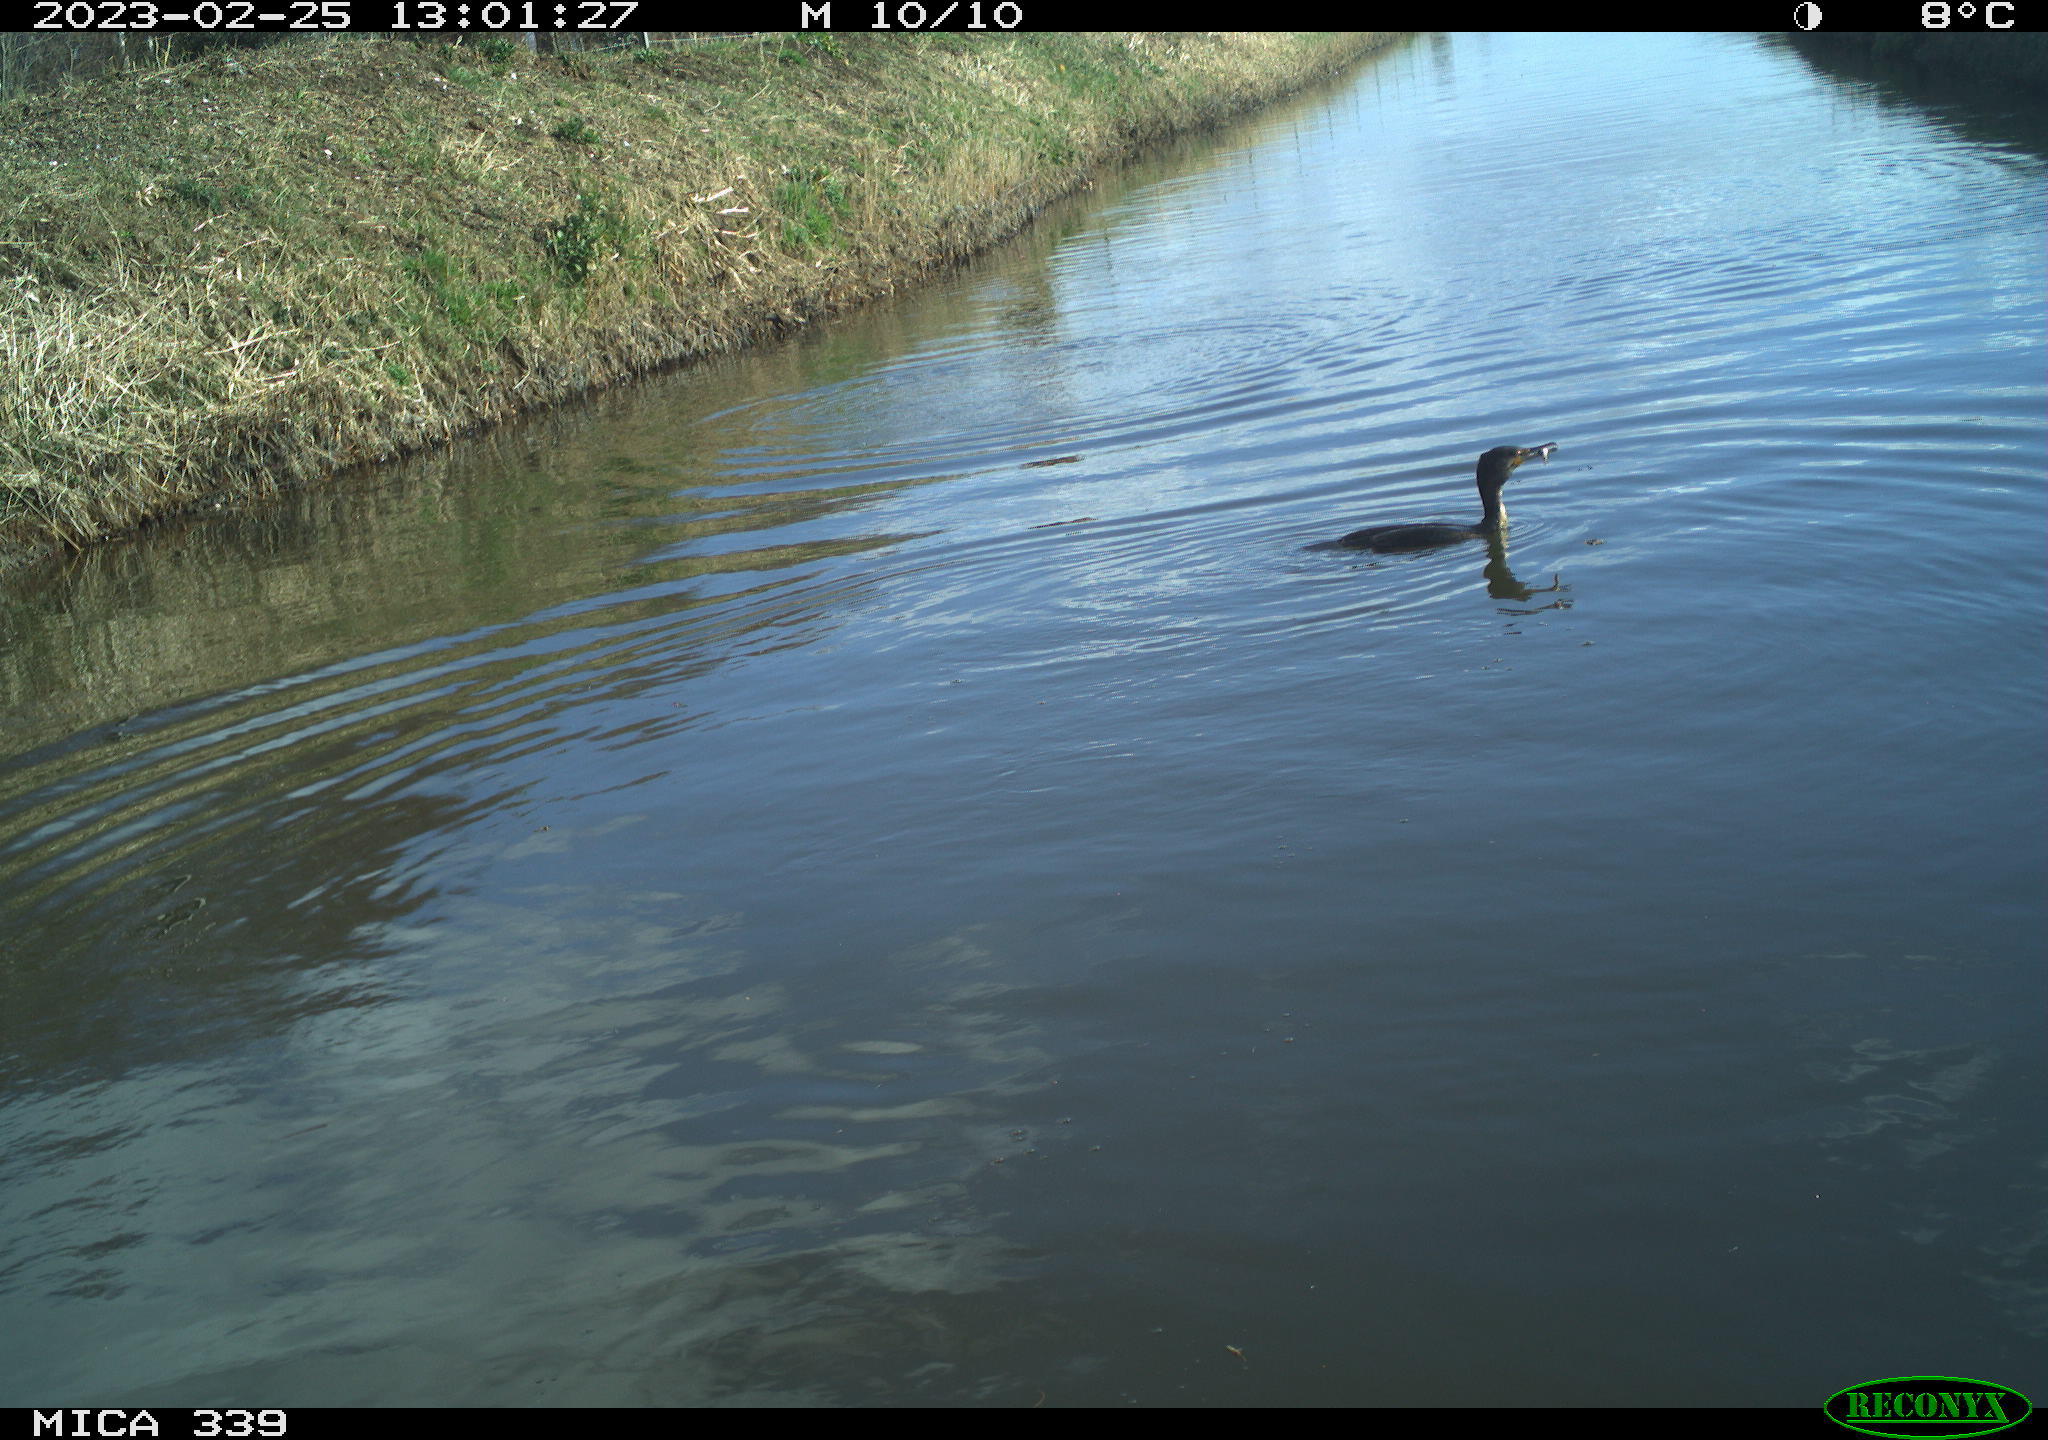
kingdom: Animalia
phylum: Chordata
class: Aves
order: Suliformes
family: Phalacrocoracidae
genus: Phalacrocorax
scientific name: Phalacrocorax carbo
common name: Great cormorant
